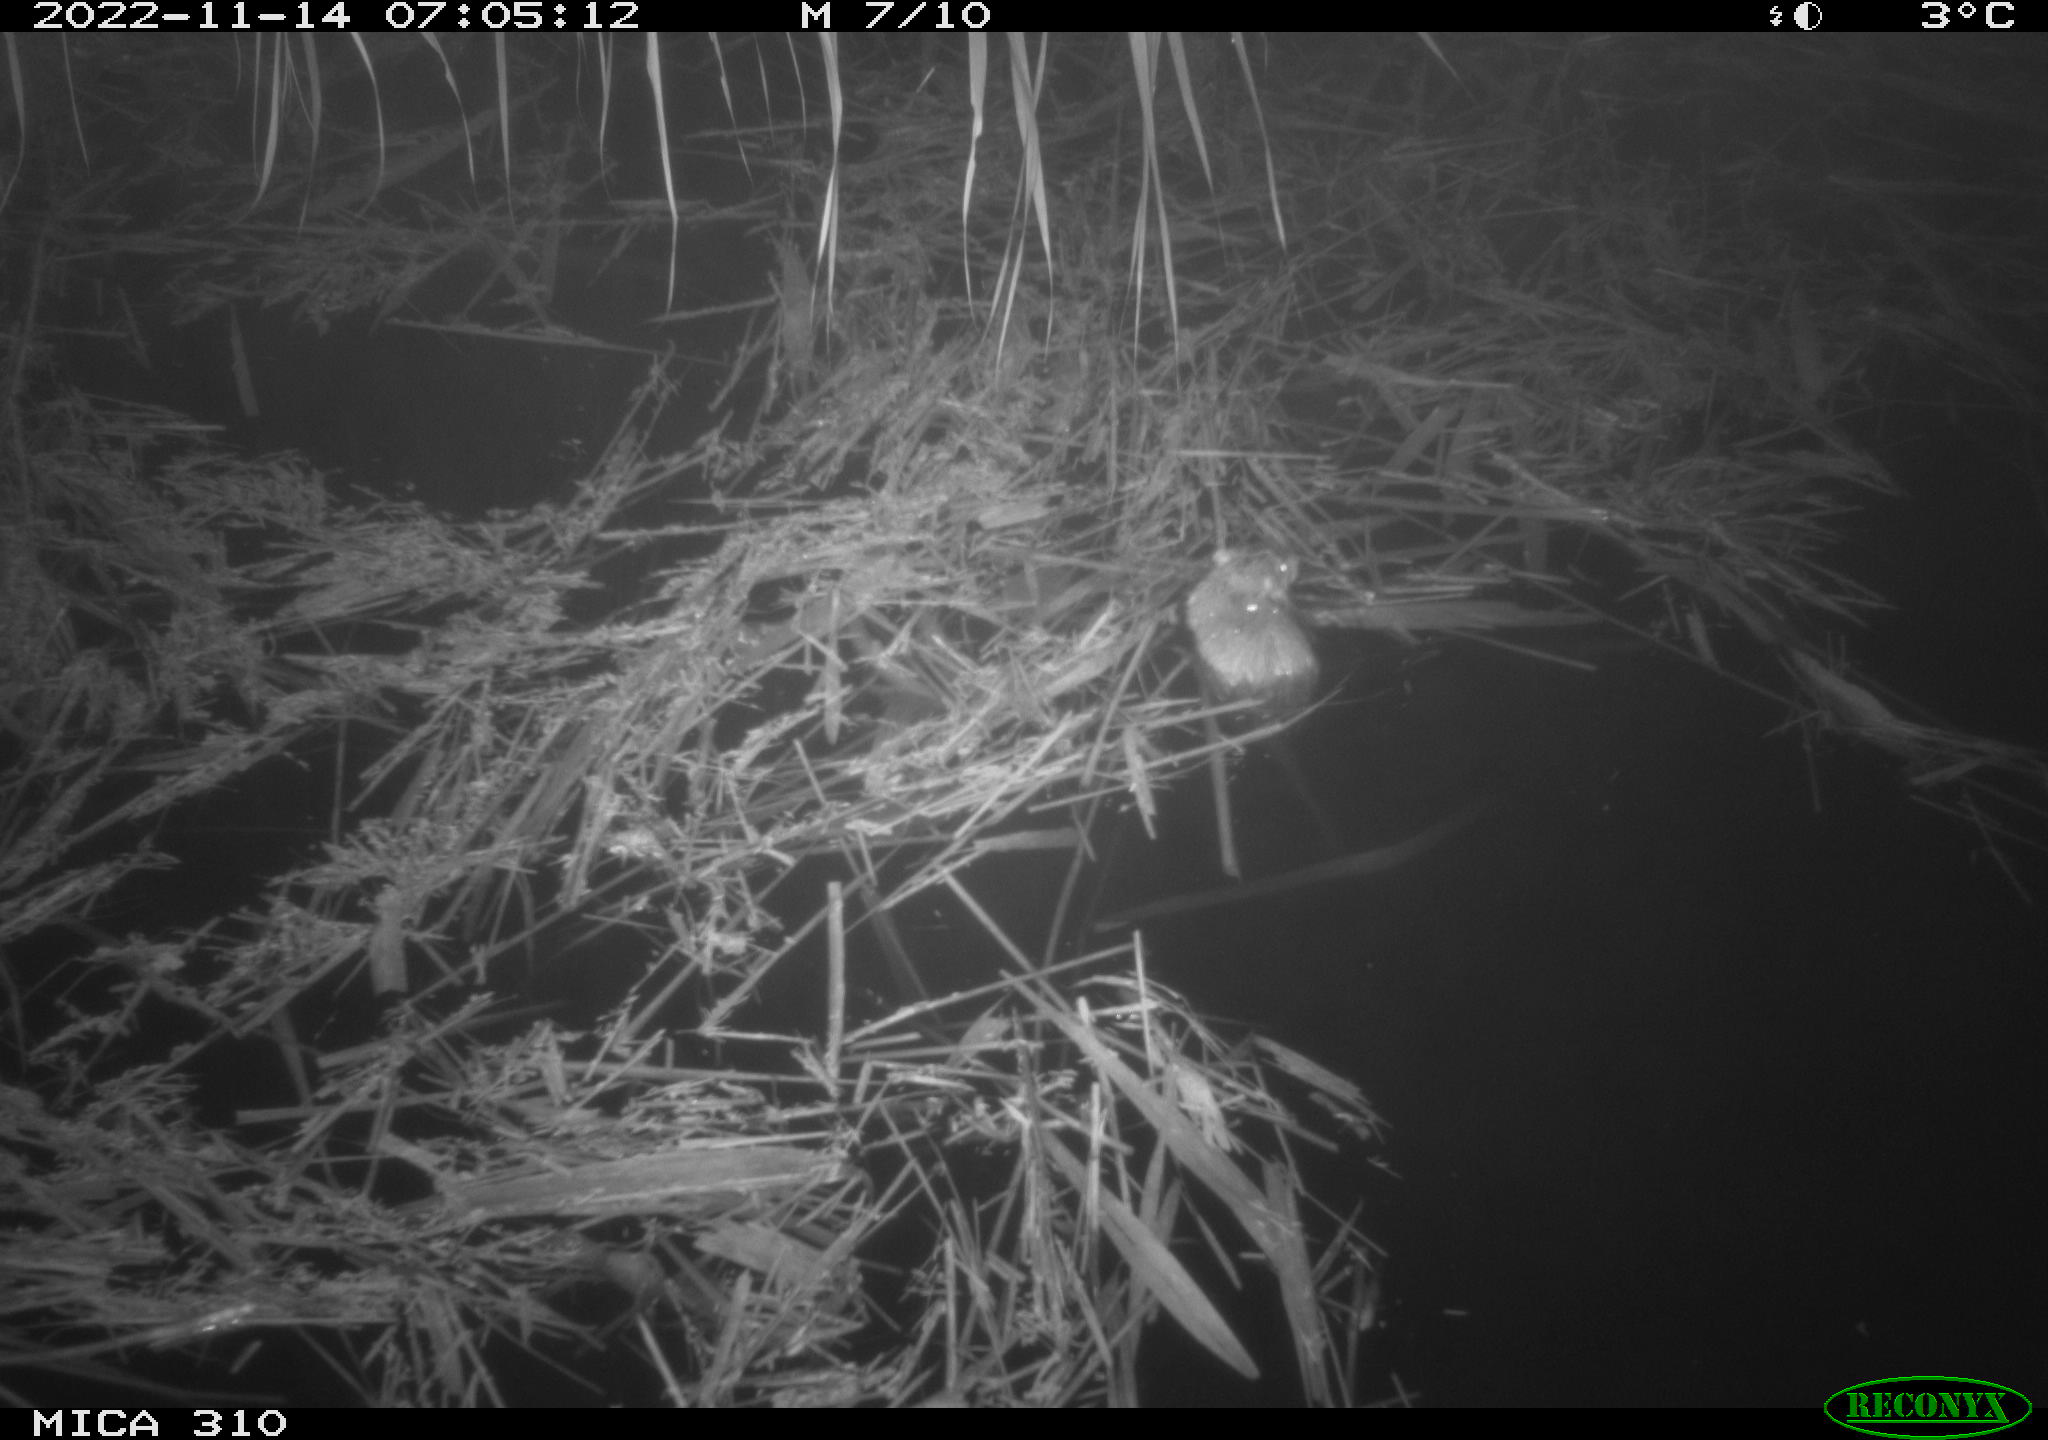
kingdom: Animalia
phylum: Chordata
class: Mammalia
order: Rodentia
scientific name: Rodentia
